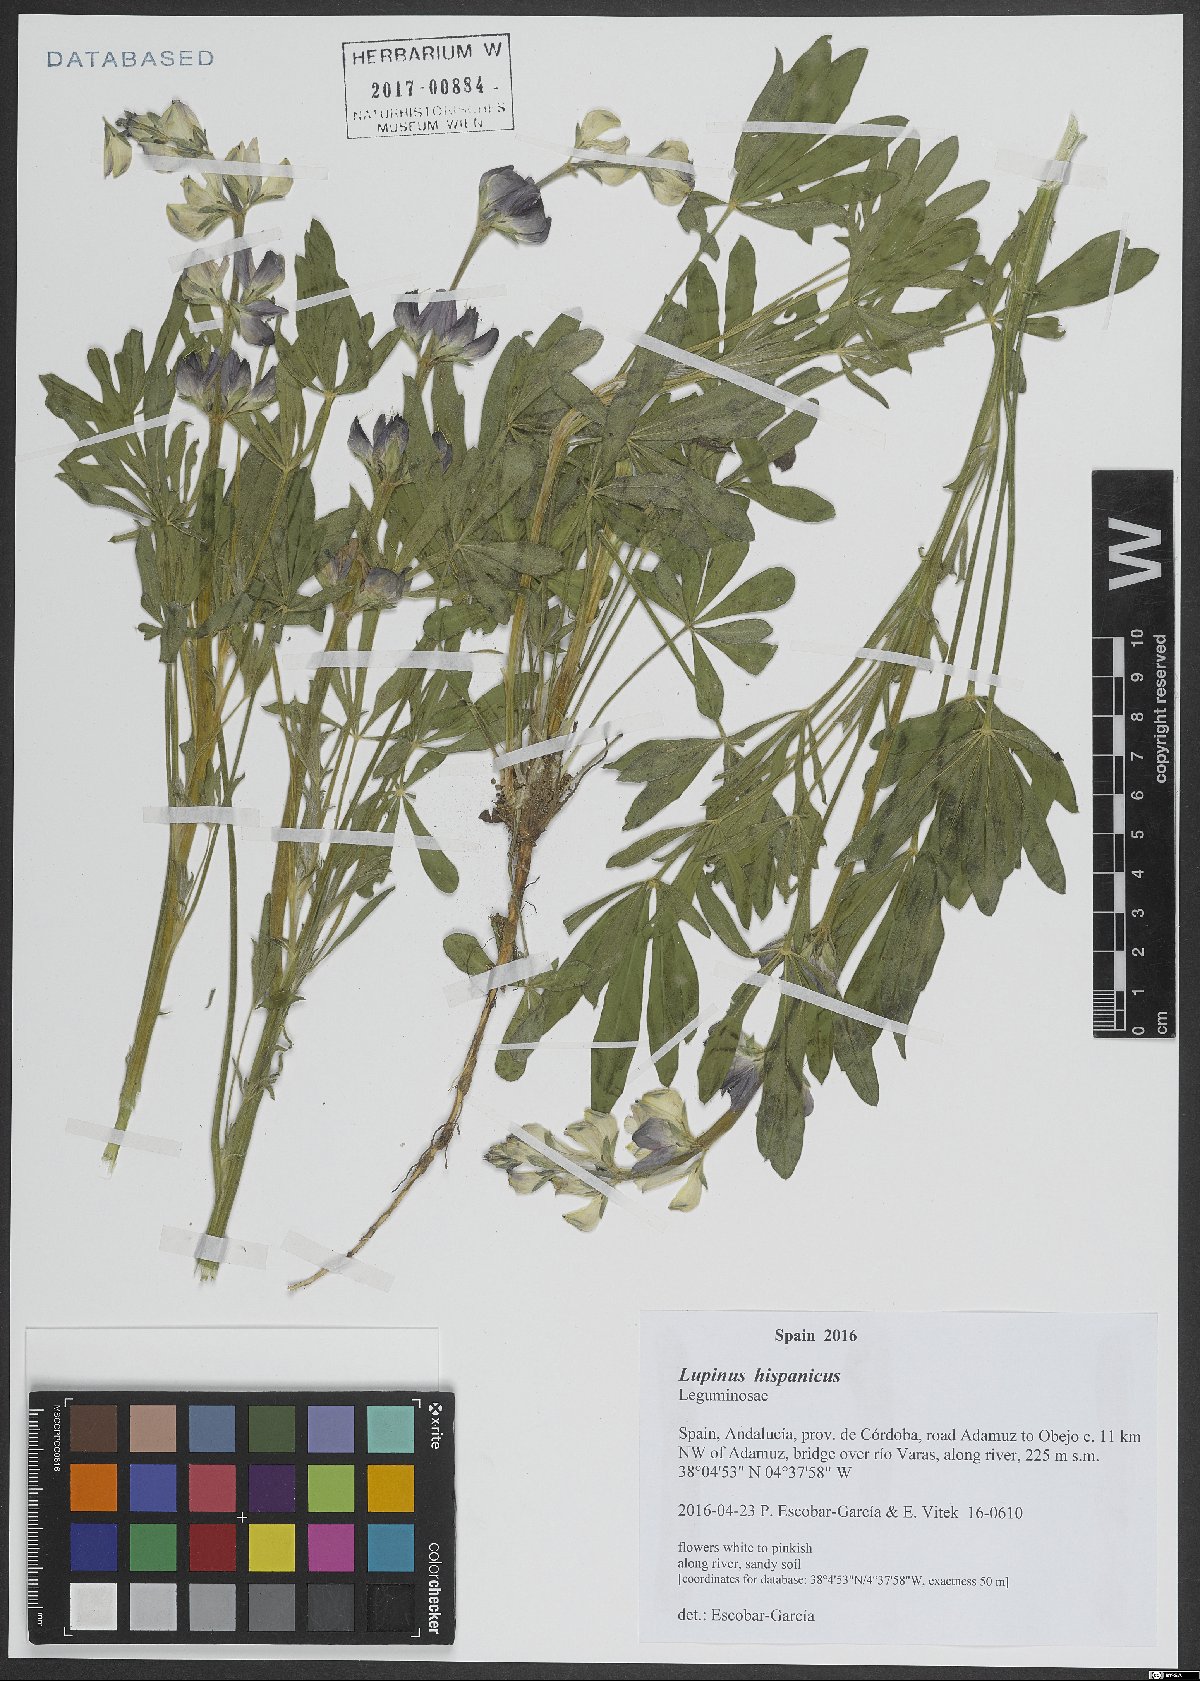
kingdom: Plantae
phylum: Tracheophyta
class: Magnoliopsida
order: Fabales
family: Fabaceae
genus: Lupinus
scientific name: Lupinus hispanicus
